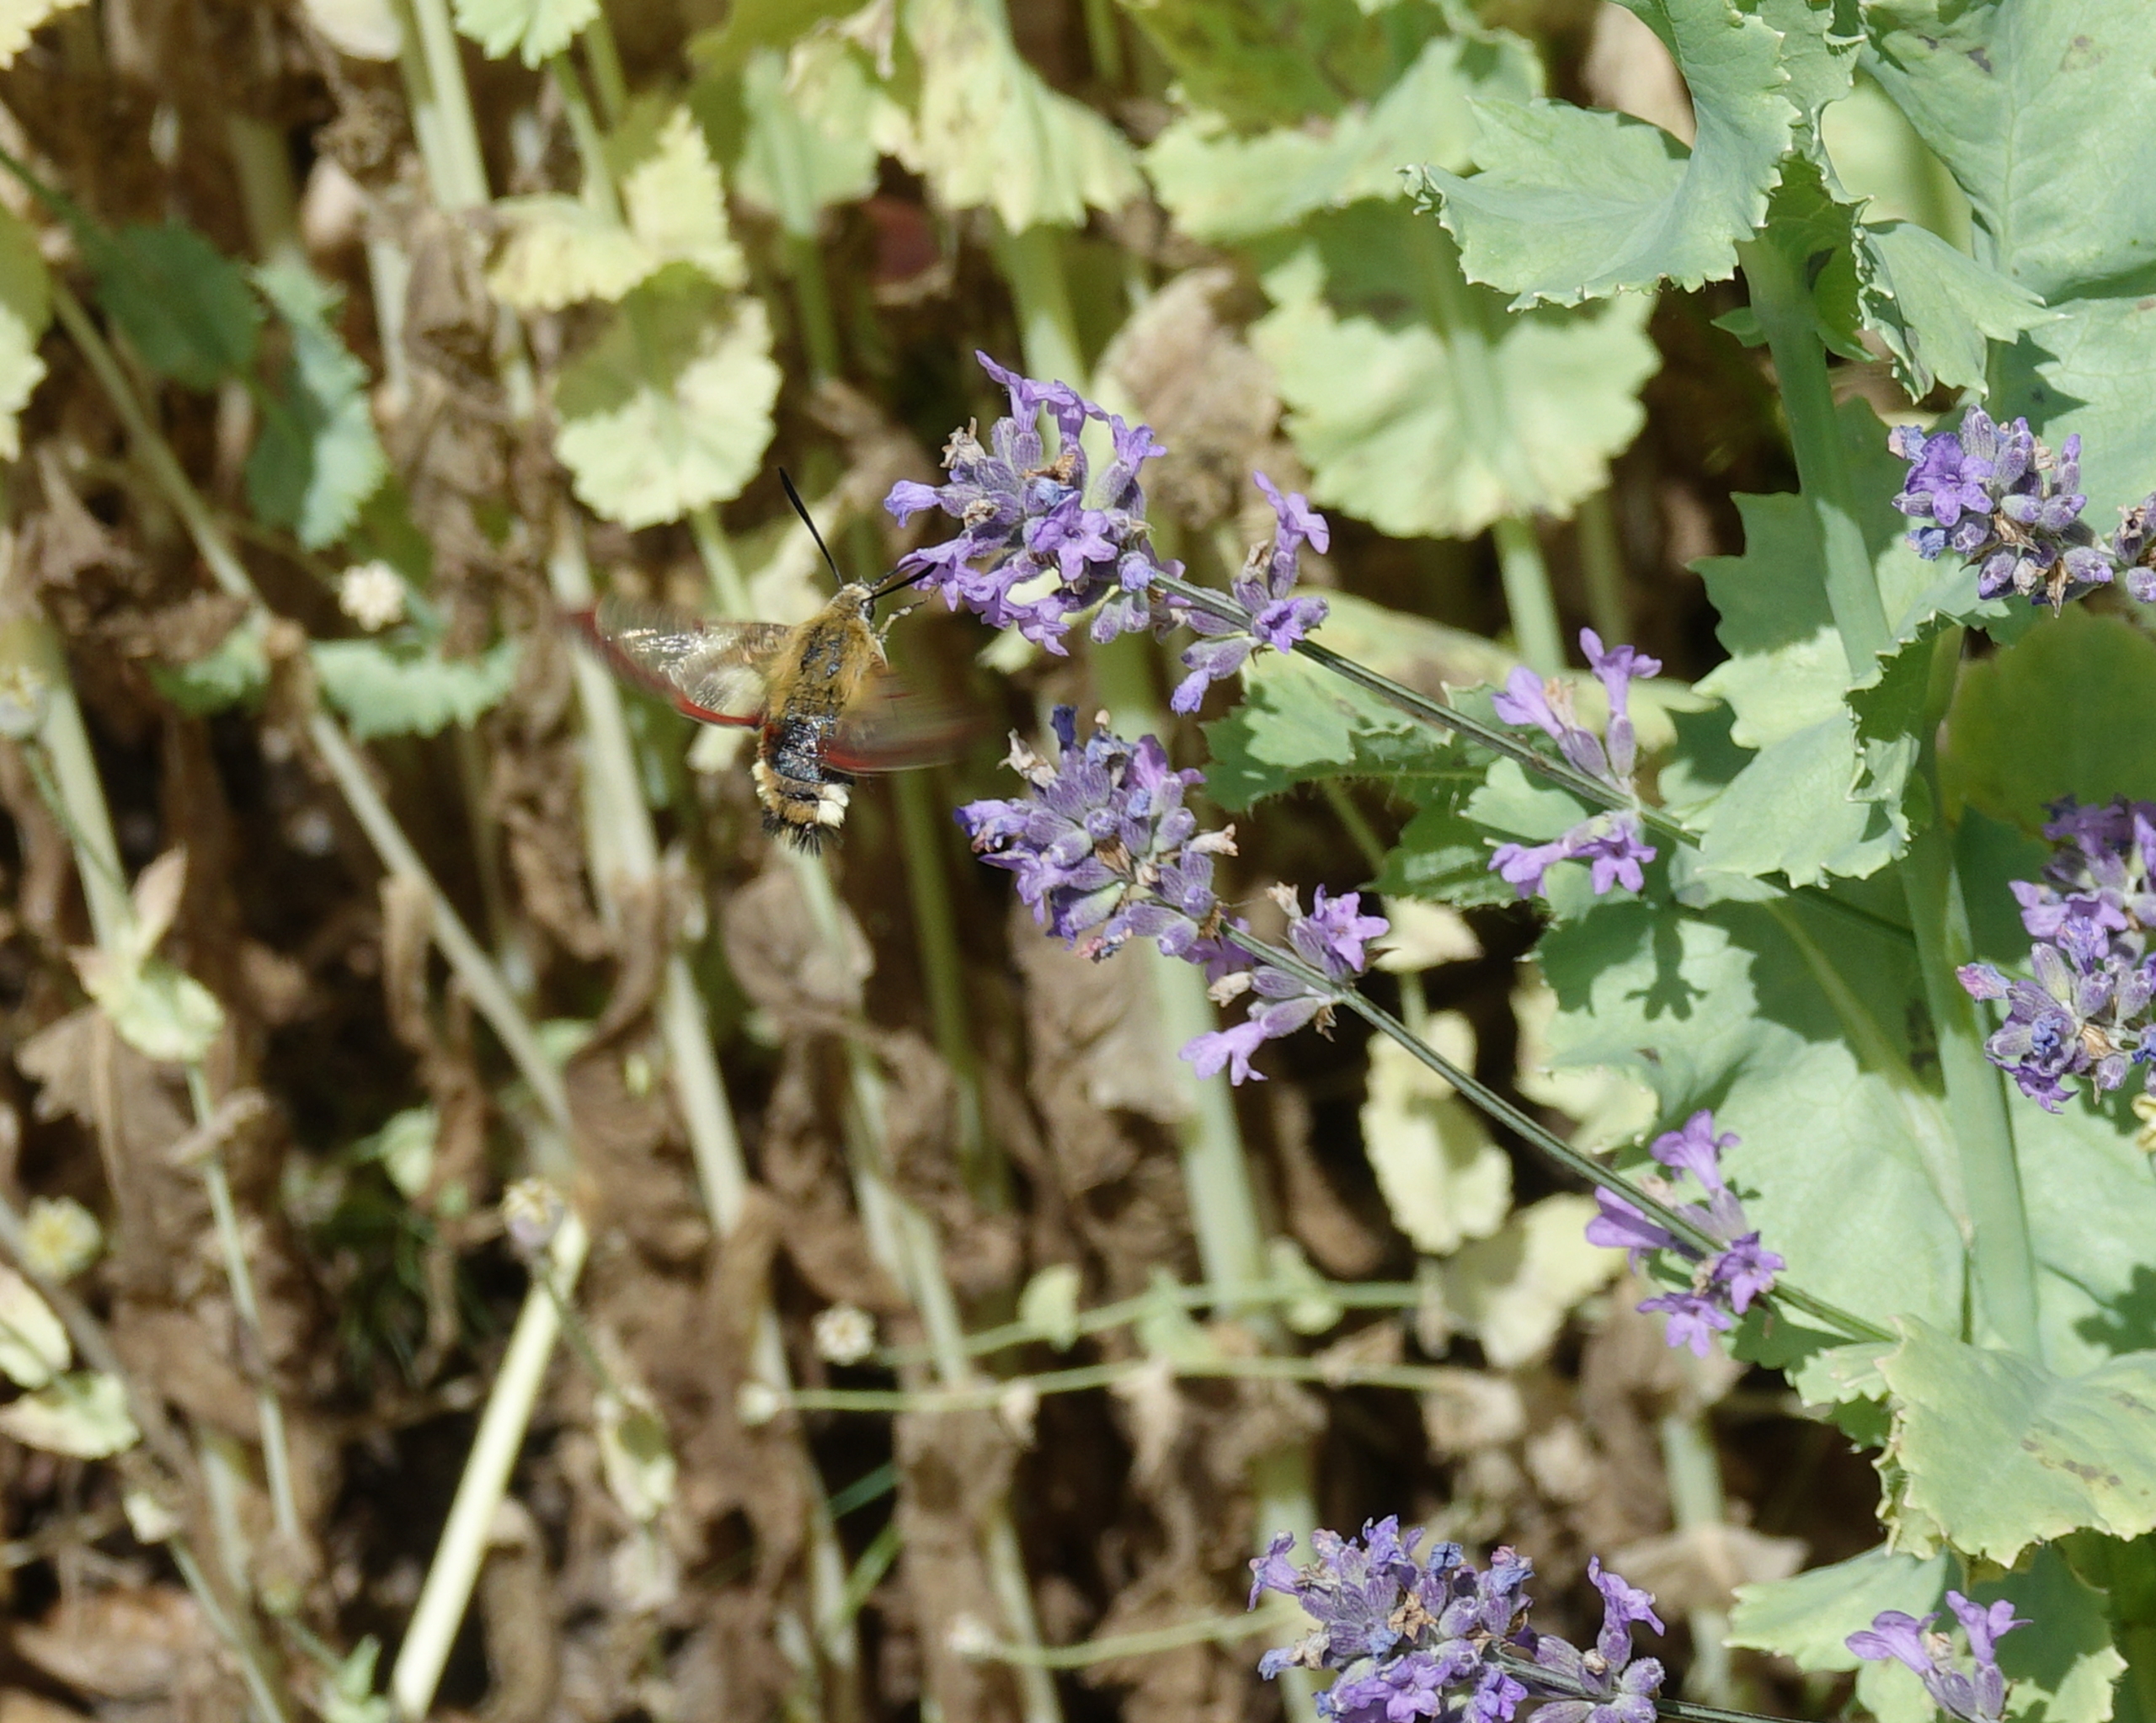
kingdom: Animalia
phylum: Arthropoda
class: Insecta
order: Lepidoptera
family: Sphingidae
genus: Hemaris
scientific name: Hemaris fuciformis
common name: Bredrandet humlebisværmer
